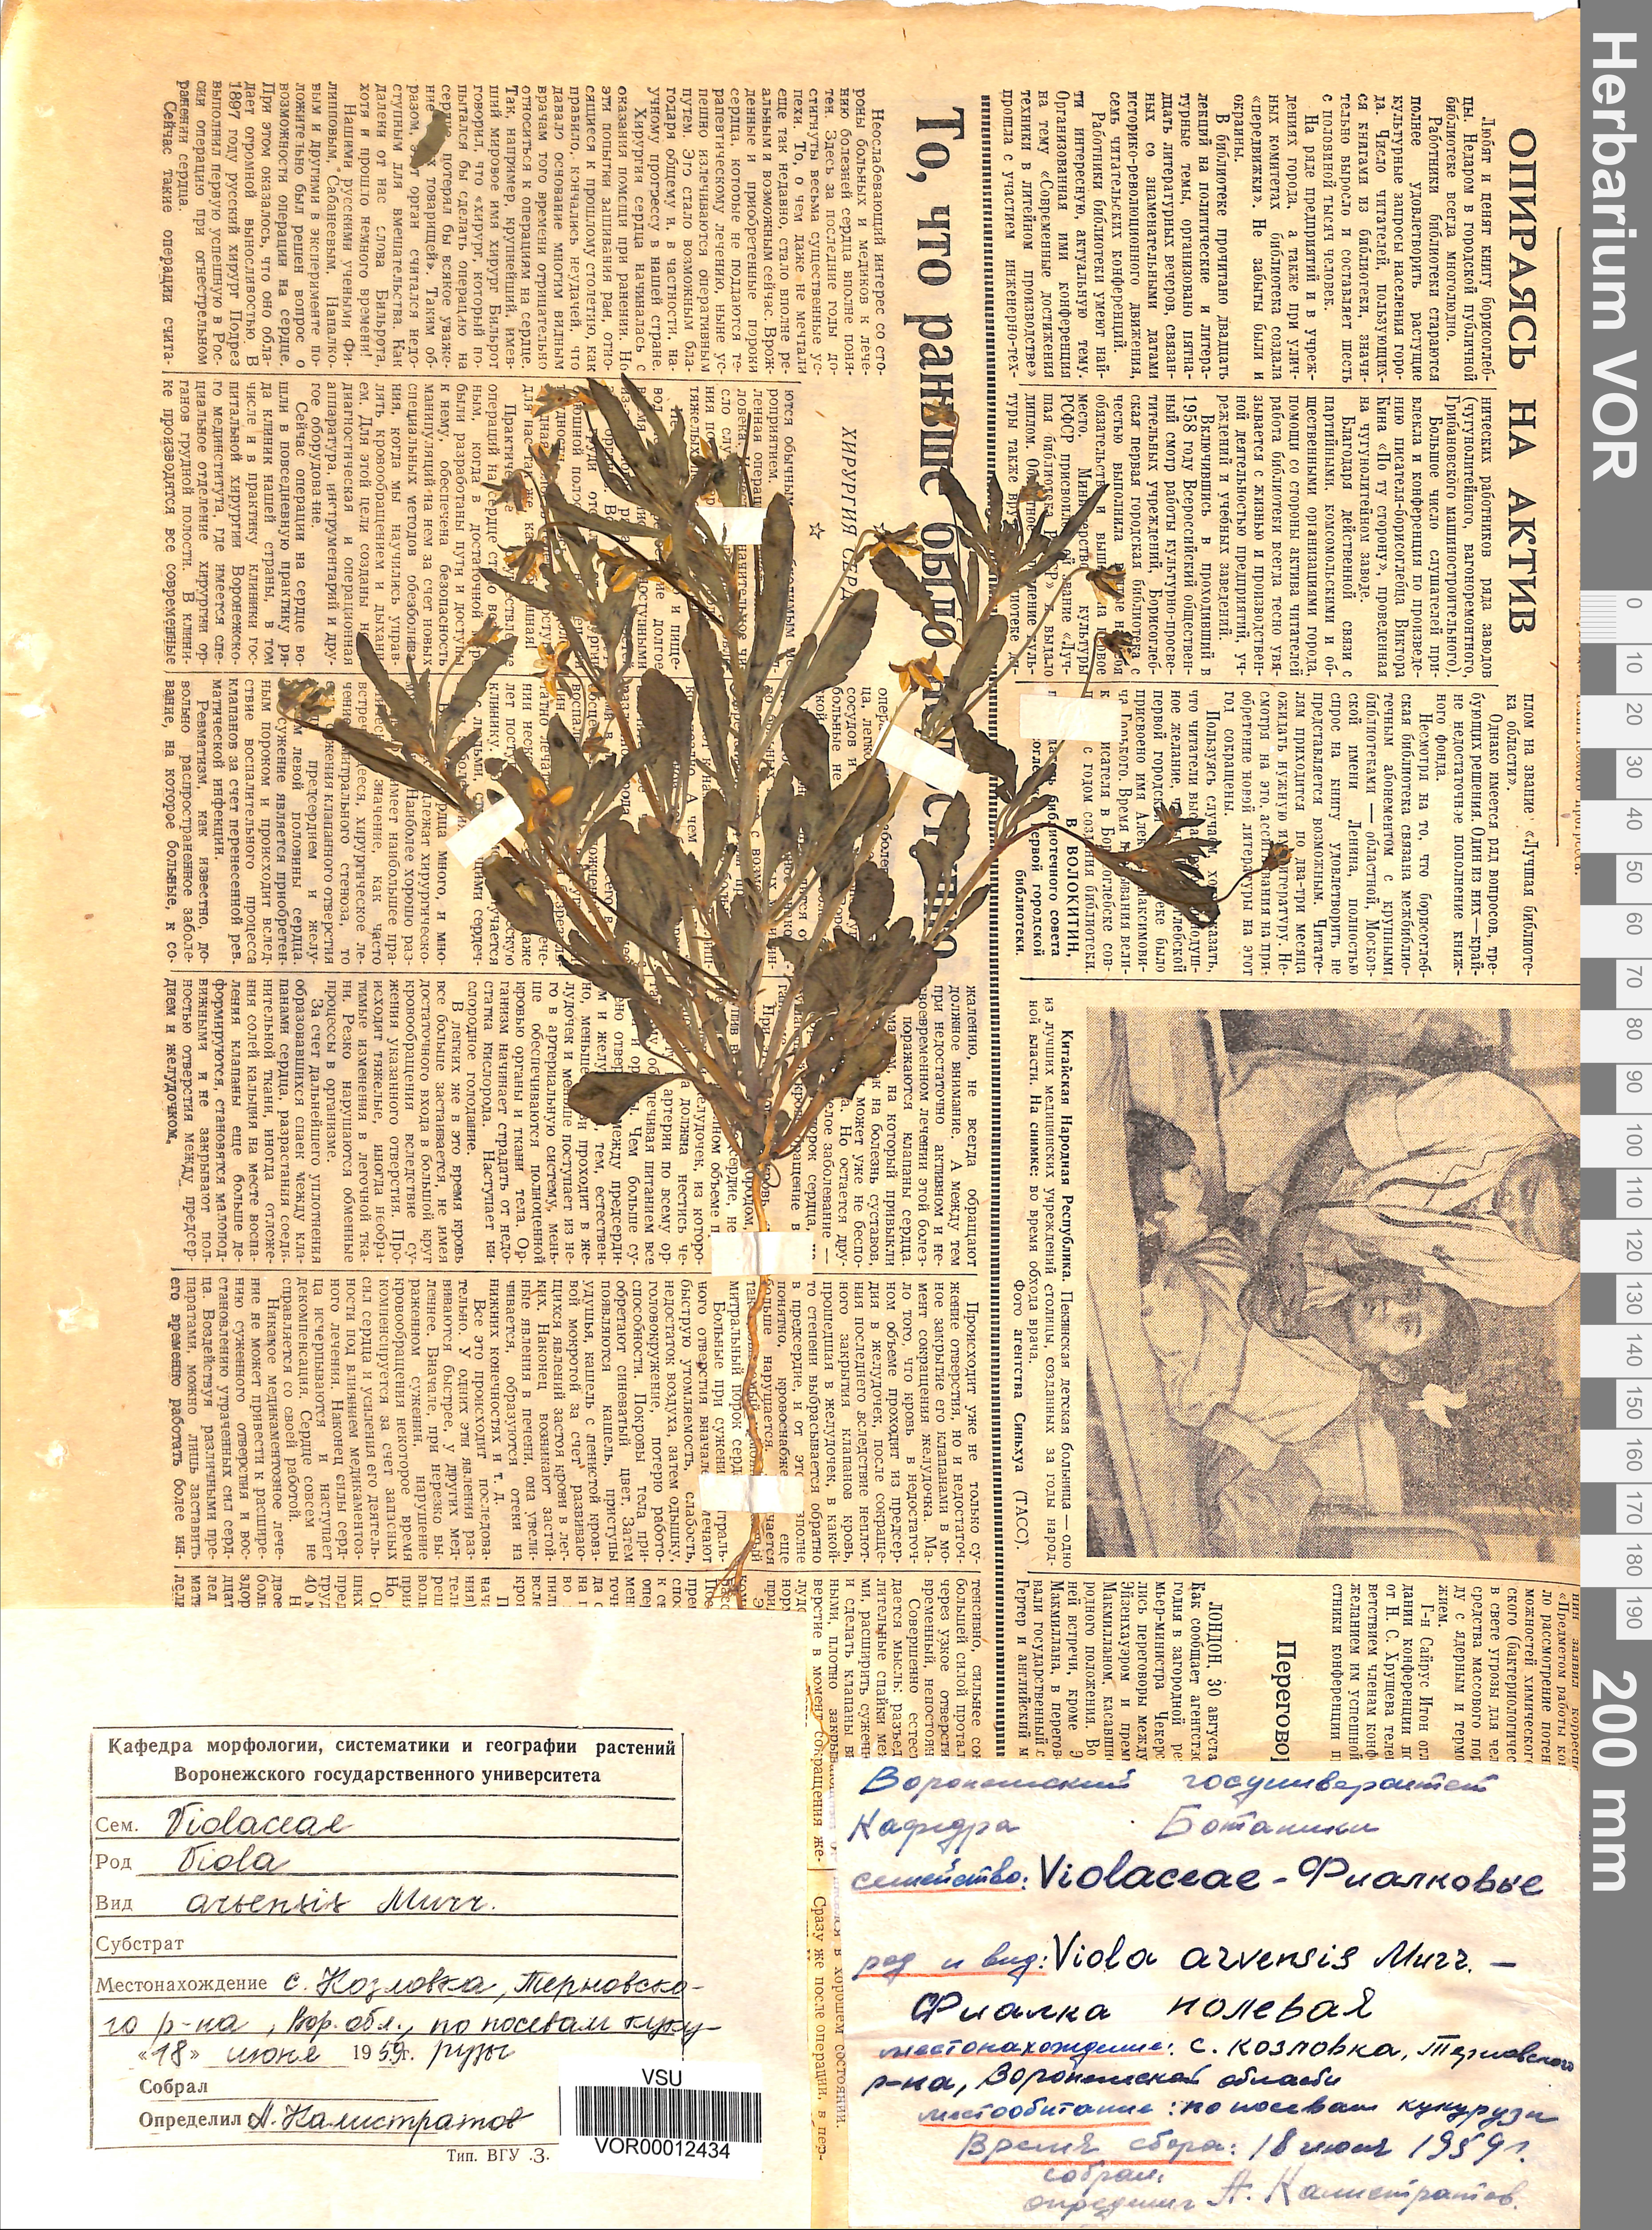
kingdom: Plantae
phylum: Tracheophyta
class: Magnoliopsida
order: Malpighiales
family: Violaceae
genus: Viola
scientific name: Viola arvensis
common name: Field pansy
